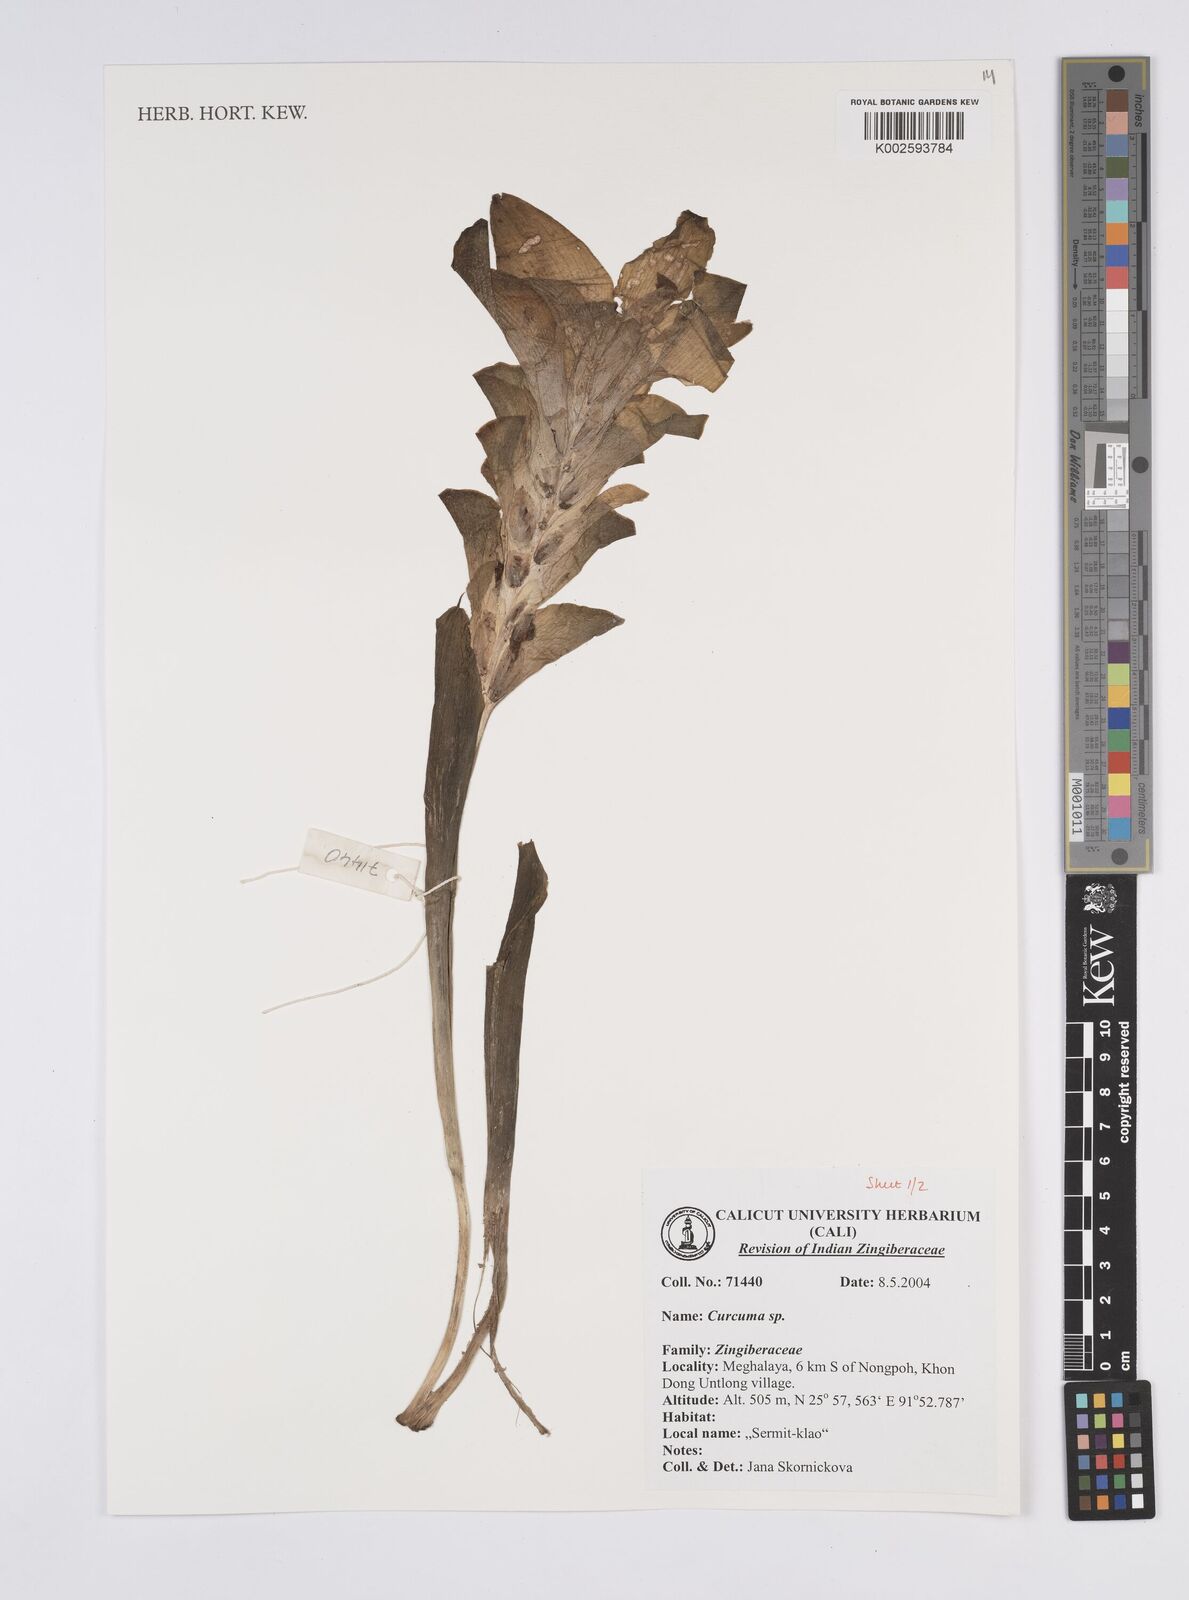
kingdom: Plantae
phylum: Tracheophyta
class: Liliopsida
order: Zingiberales
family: Zingiberaceae
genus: Curcuma
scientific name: Curcuma
